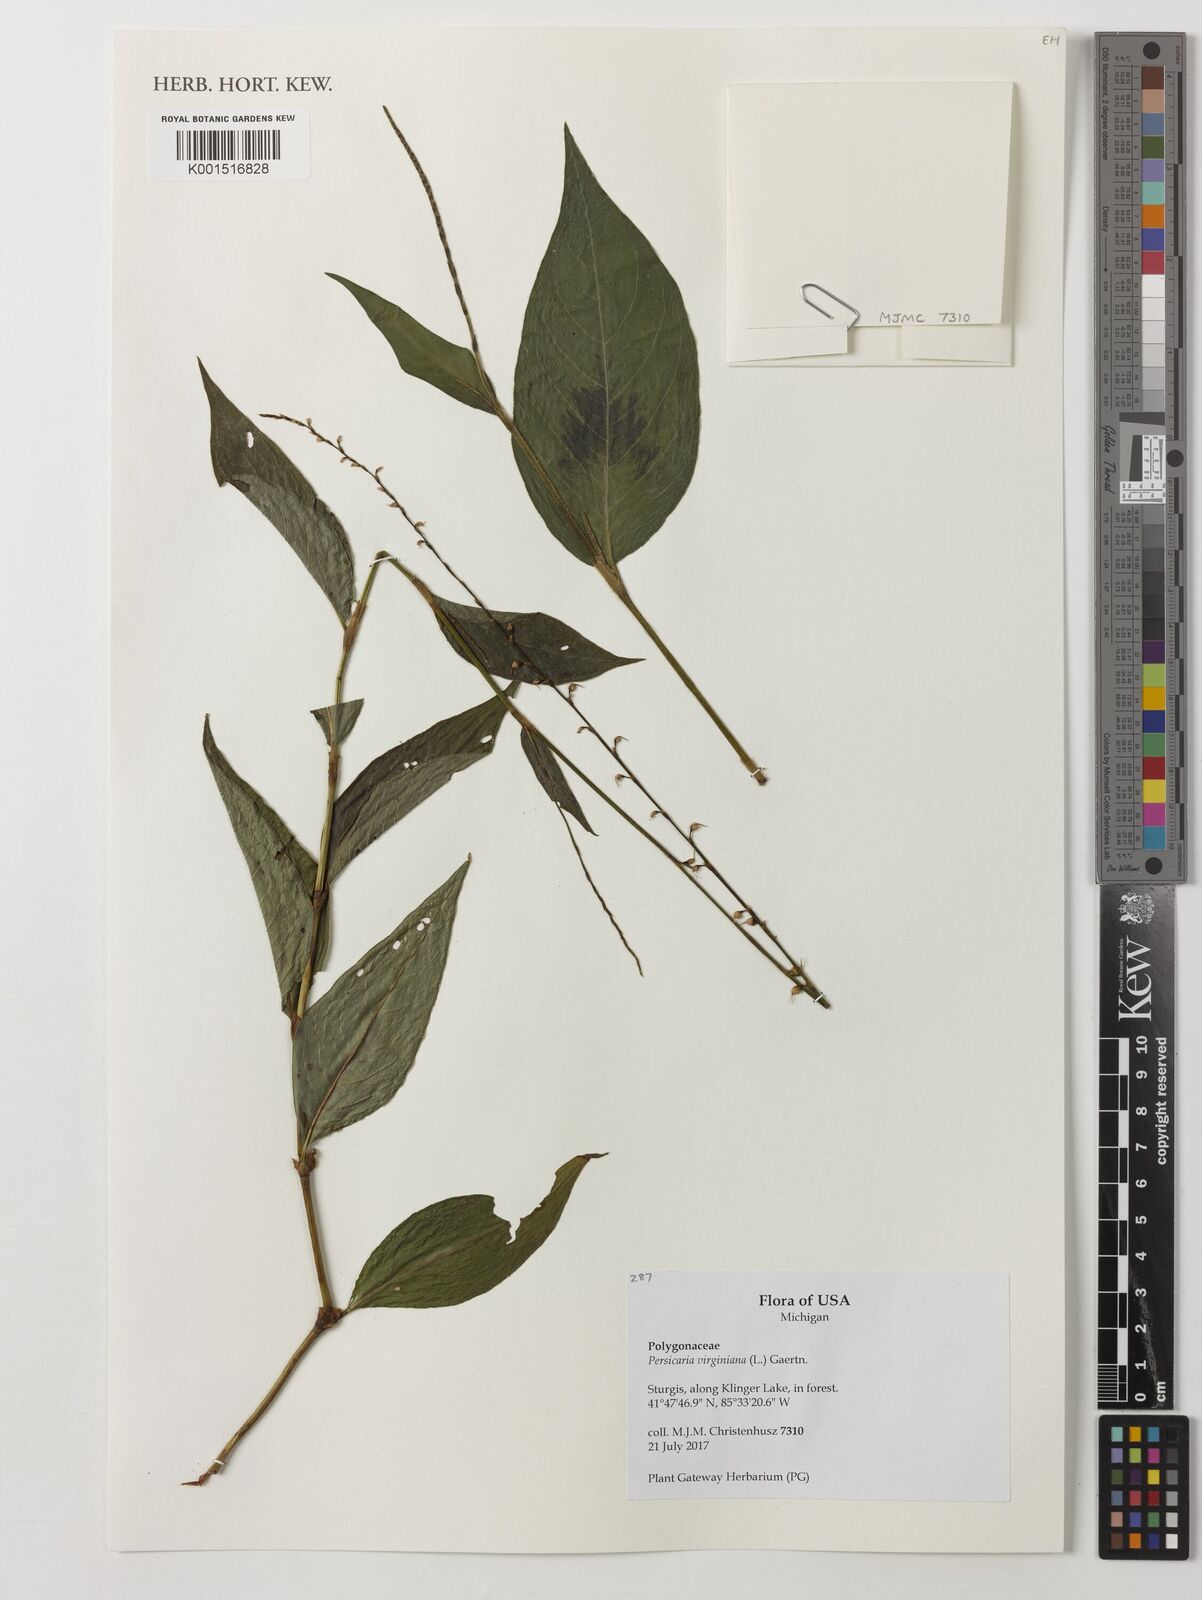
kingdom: Plantae
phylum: Tracheophyta
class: Magnoliopsida
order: Caryophyllales
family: Polygonaceae
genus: Persicaria
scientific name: Persicaria virginiana
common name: Jumpseed
